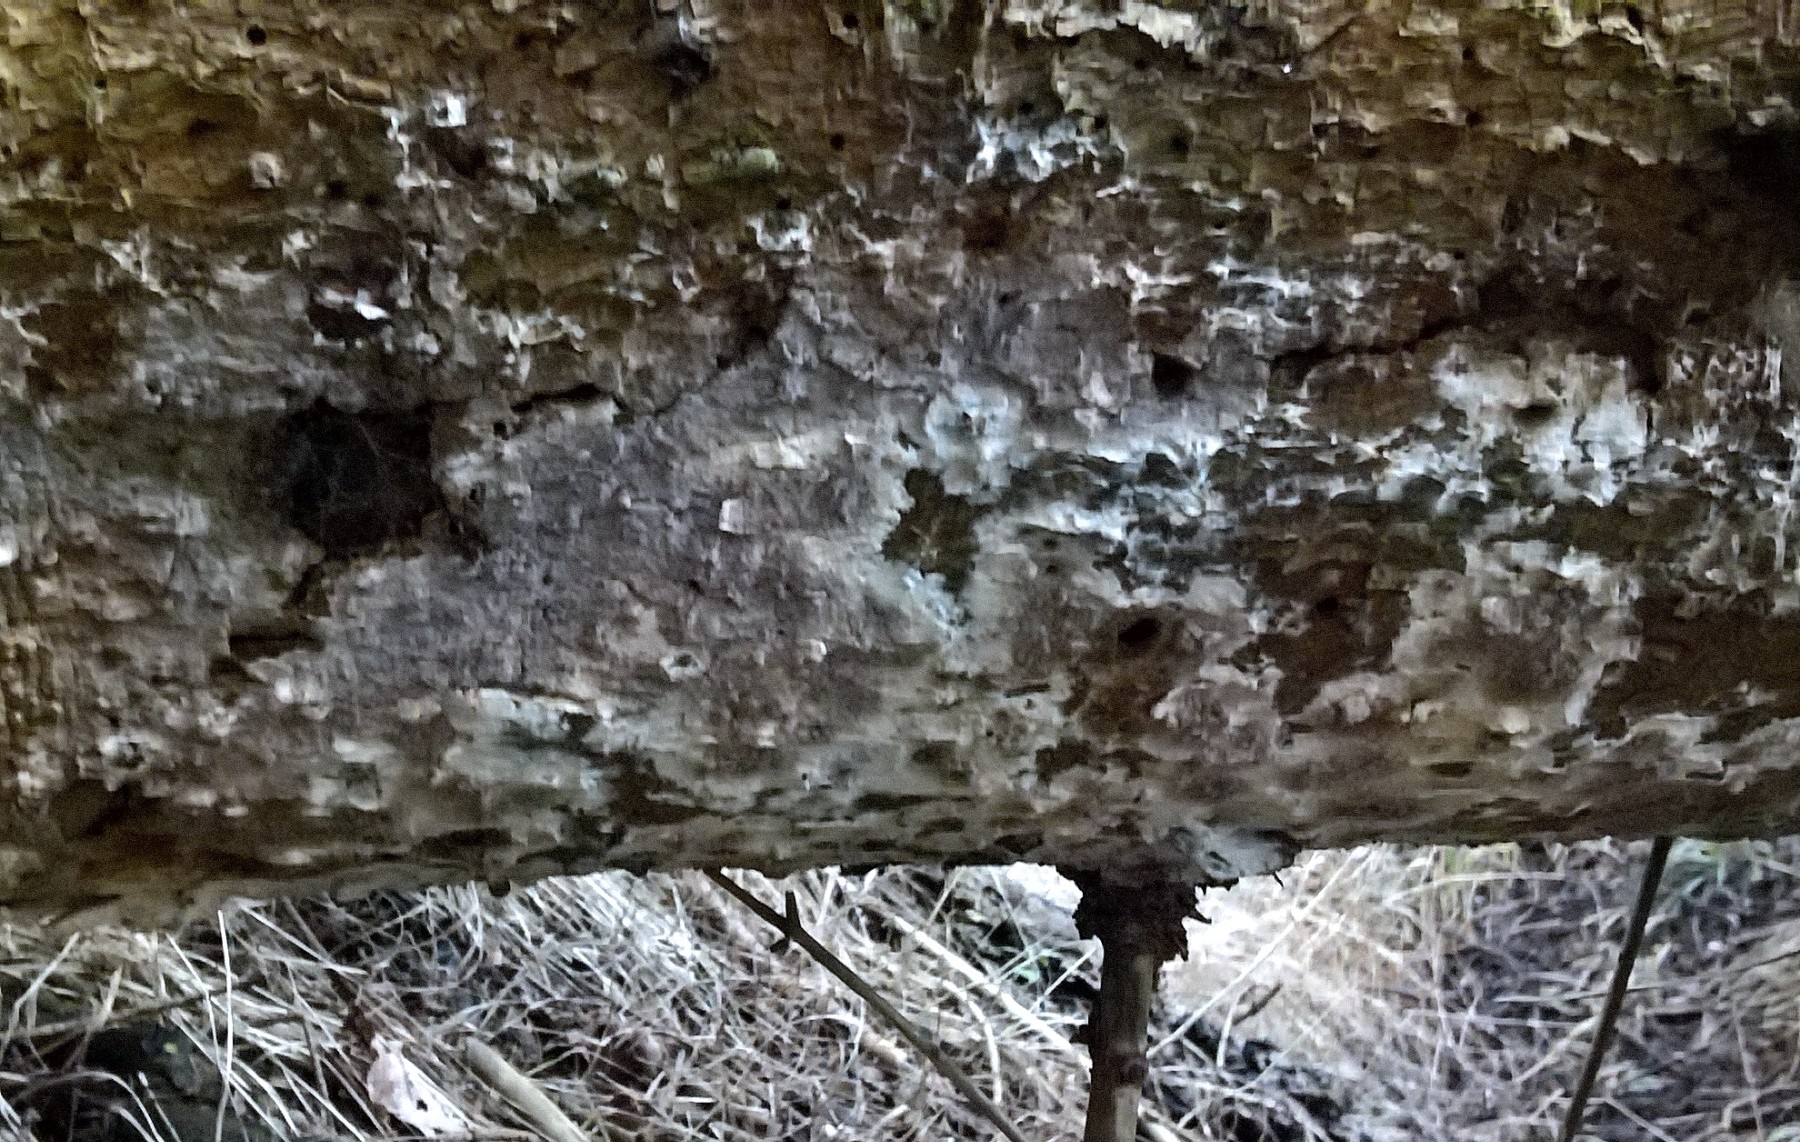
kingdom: Fungi
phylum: Basidiomycota
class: Agaricomycetes
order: Boletales
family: Coniophoraceae
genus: Coniophora
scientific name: Coniophora puteana
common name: gul tømmersvamp
